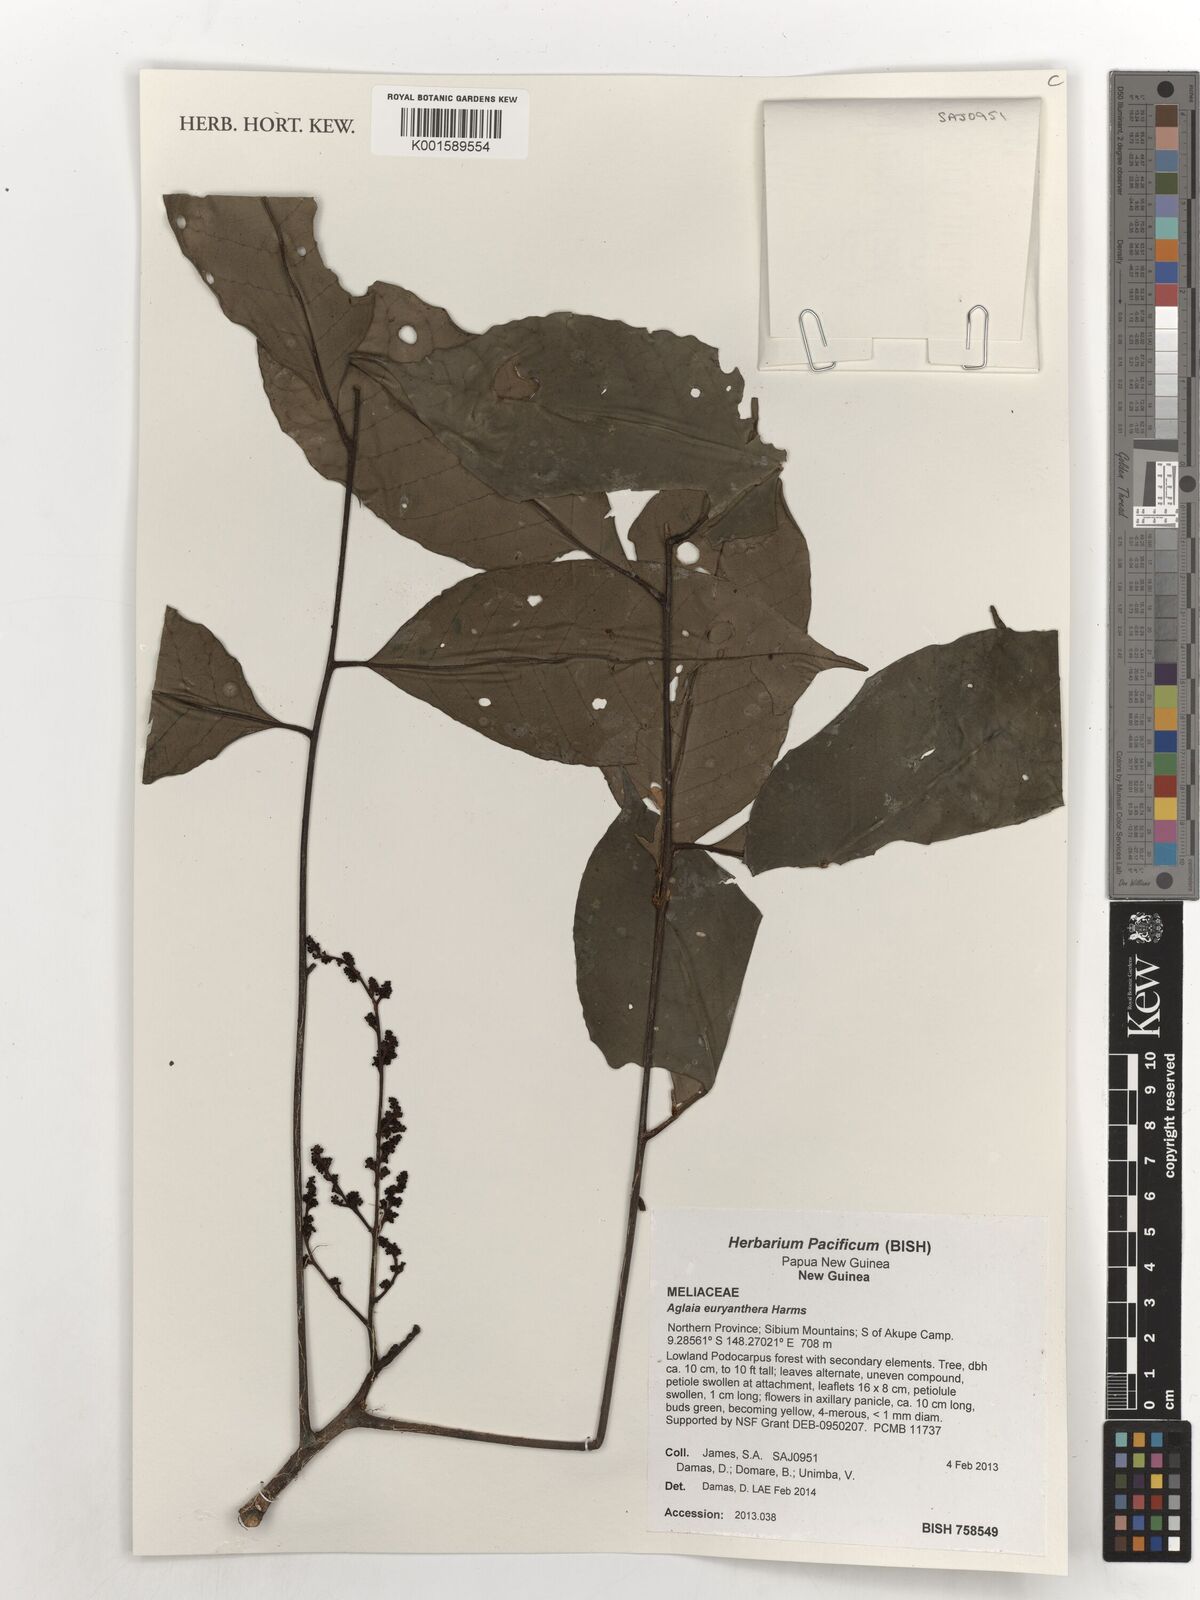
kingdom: Plantae
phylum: Tracheophyta
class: Magnoliopsida
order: Sapindales
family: Meliaceae
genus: Aglaia
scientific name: Aglaia euryanthera
